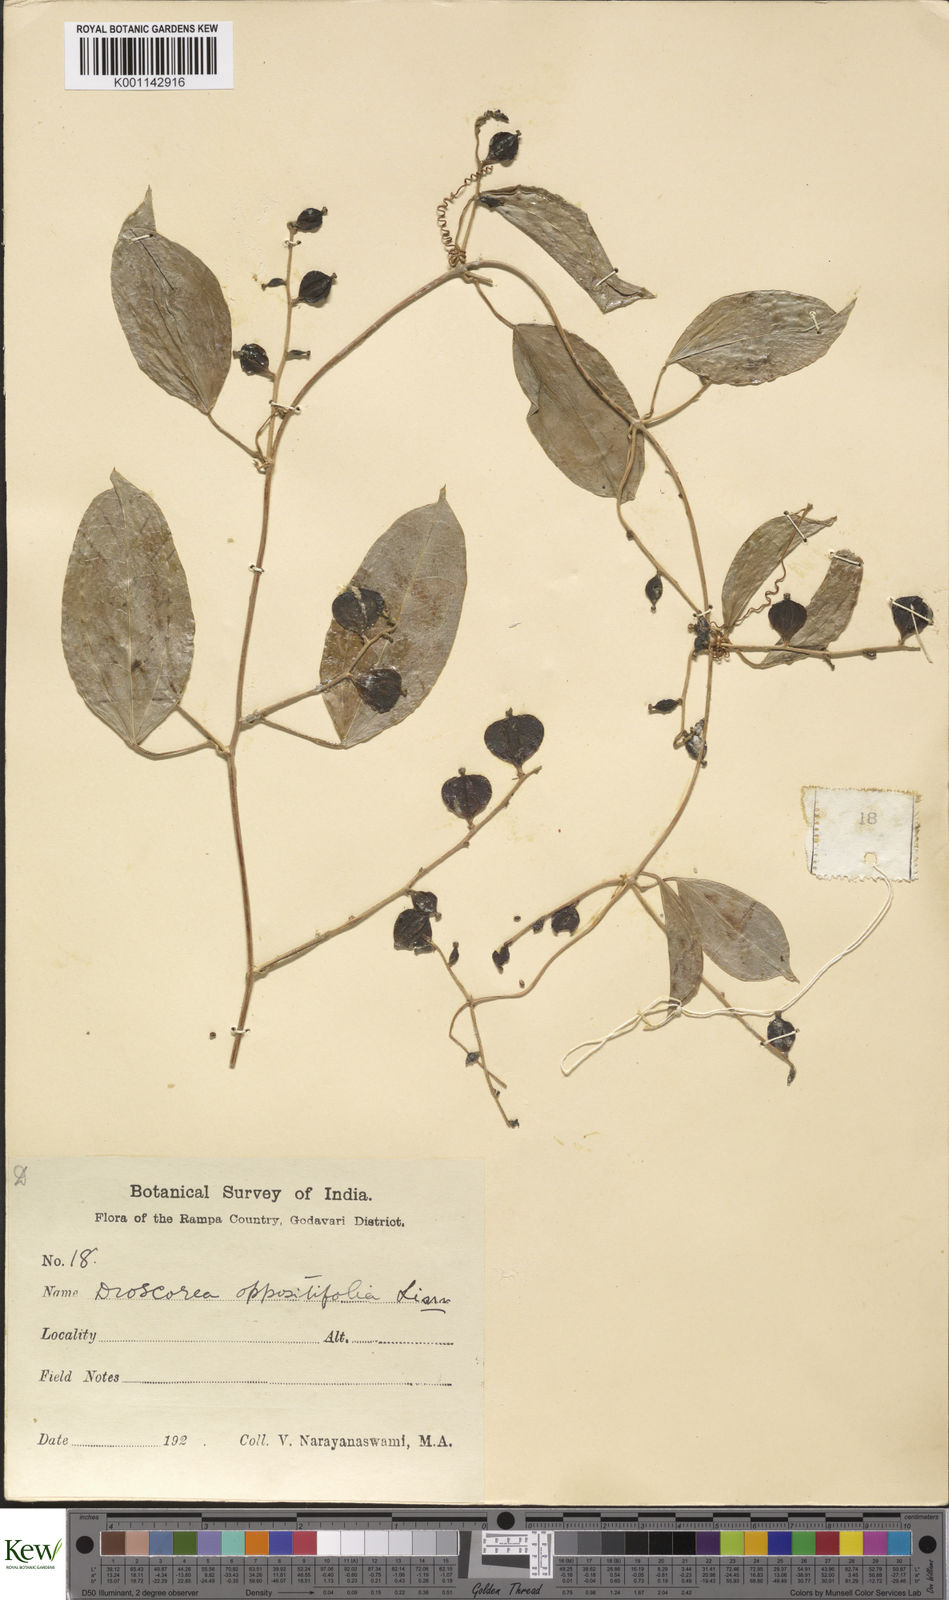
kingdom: Plantae
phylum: Tracheophyta
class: Liliopsida
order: Dioscoreales
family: Dioscoreaceae
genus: Dioscorea
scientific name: Dioscorea oppositifolia
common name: Chinese yam
